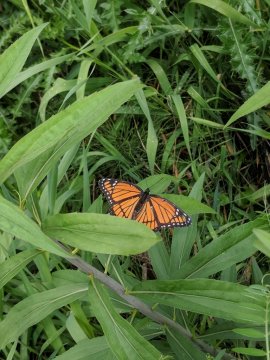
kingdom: Animalia
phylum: Arthropoda
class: Insecta
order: Lepidoptera
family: Nymphalidae
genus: Limenitis
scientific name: Limenitis archippus
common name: Viceroy
